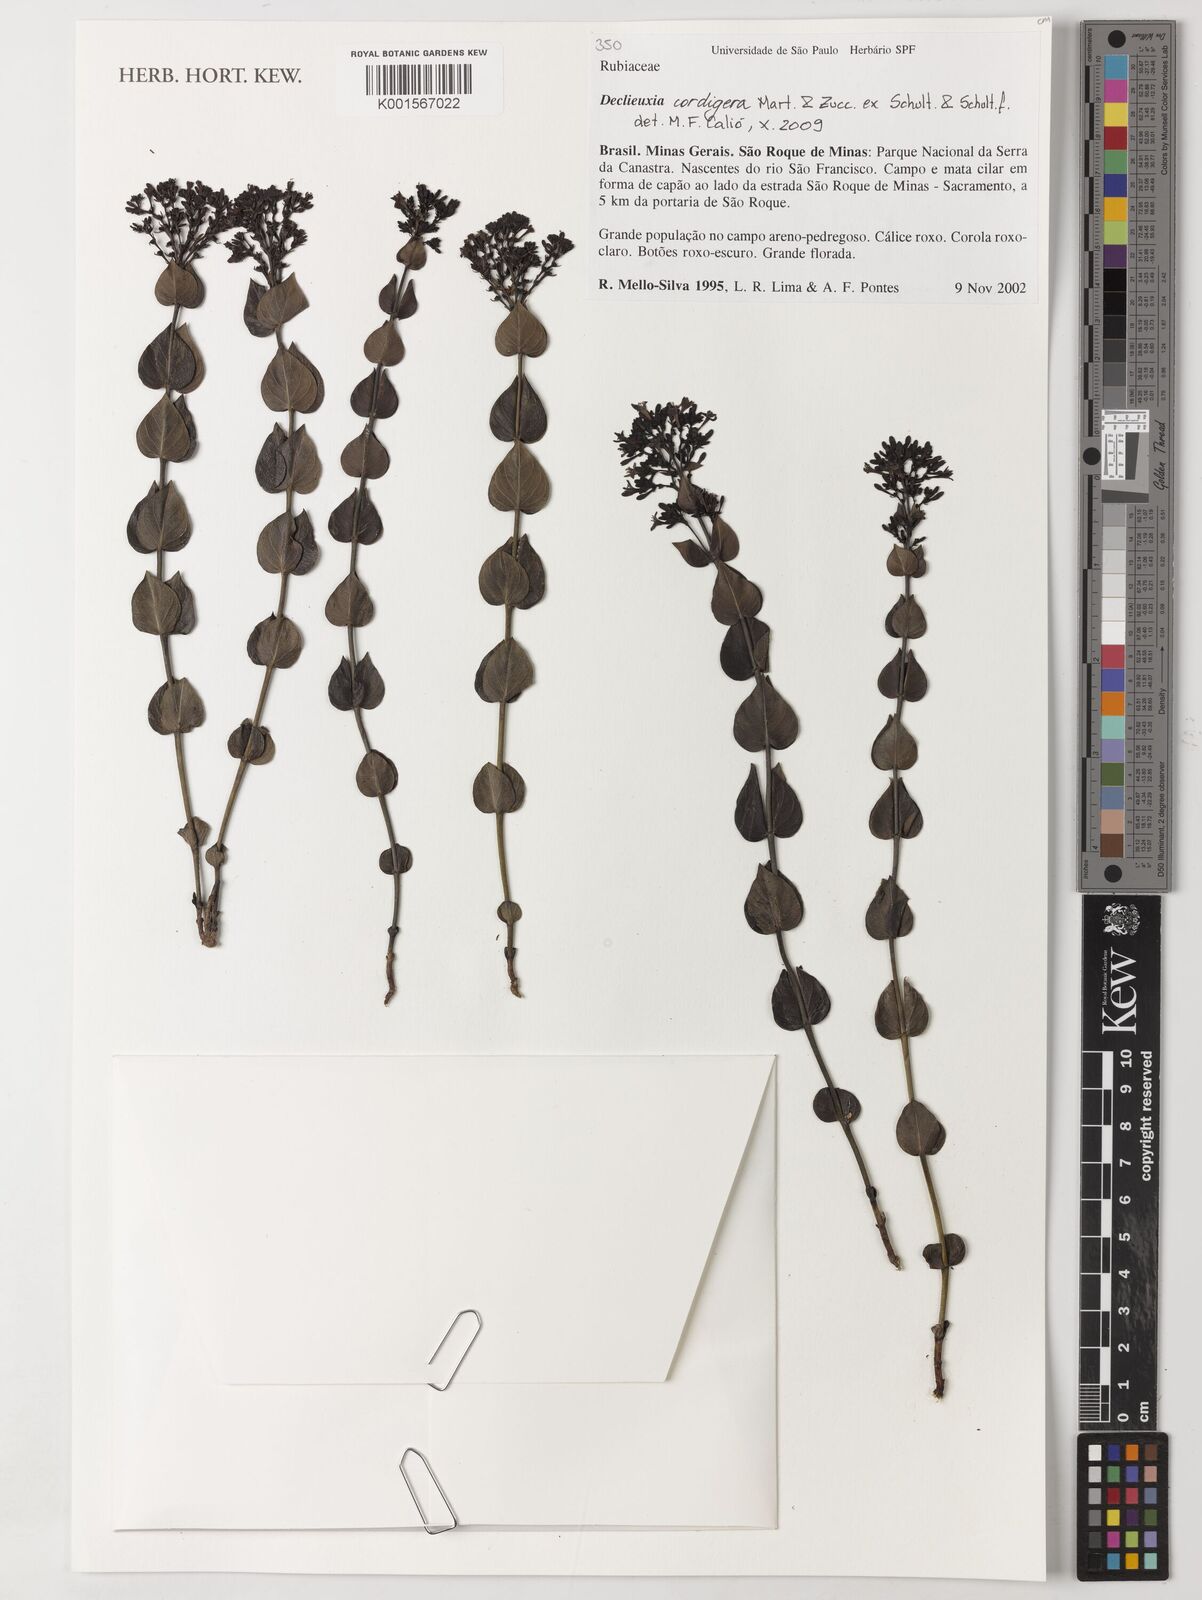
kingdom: Plantae
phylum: Tracheophyta
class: Magnoliopsida
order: Gentianales
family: Rubiaceae
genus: Declieuxia
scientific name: Declieuxia cordigera
